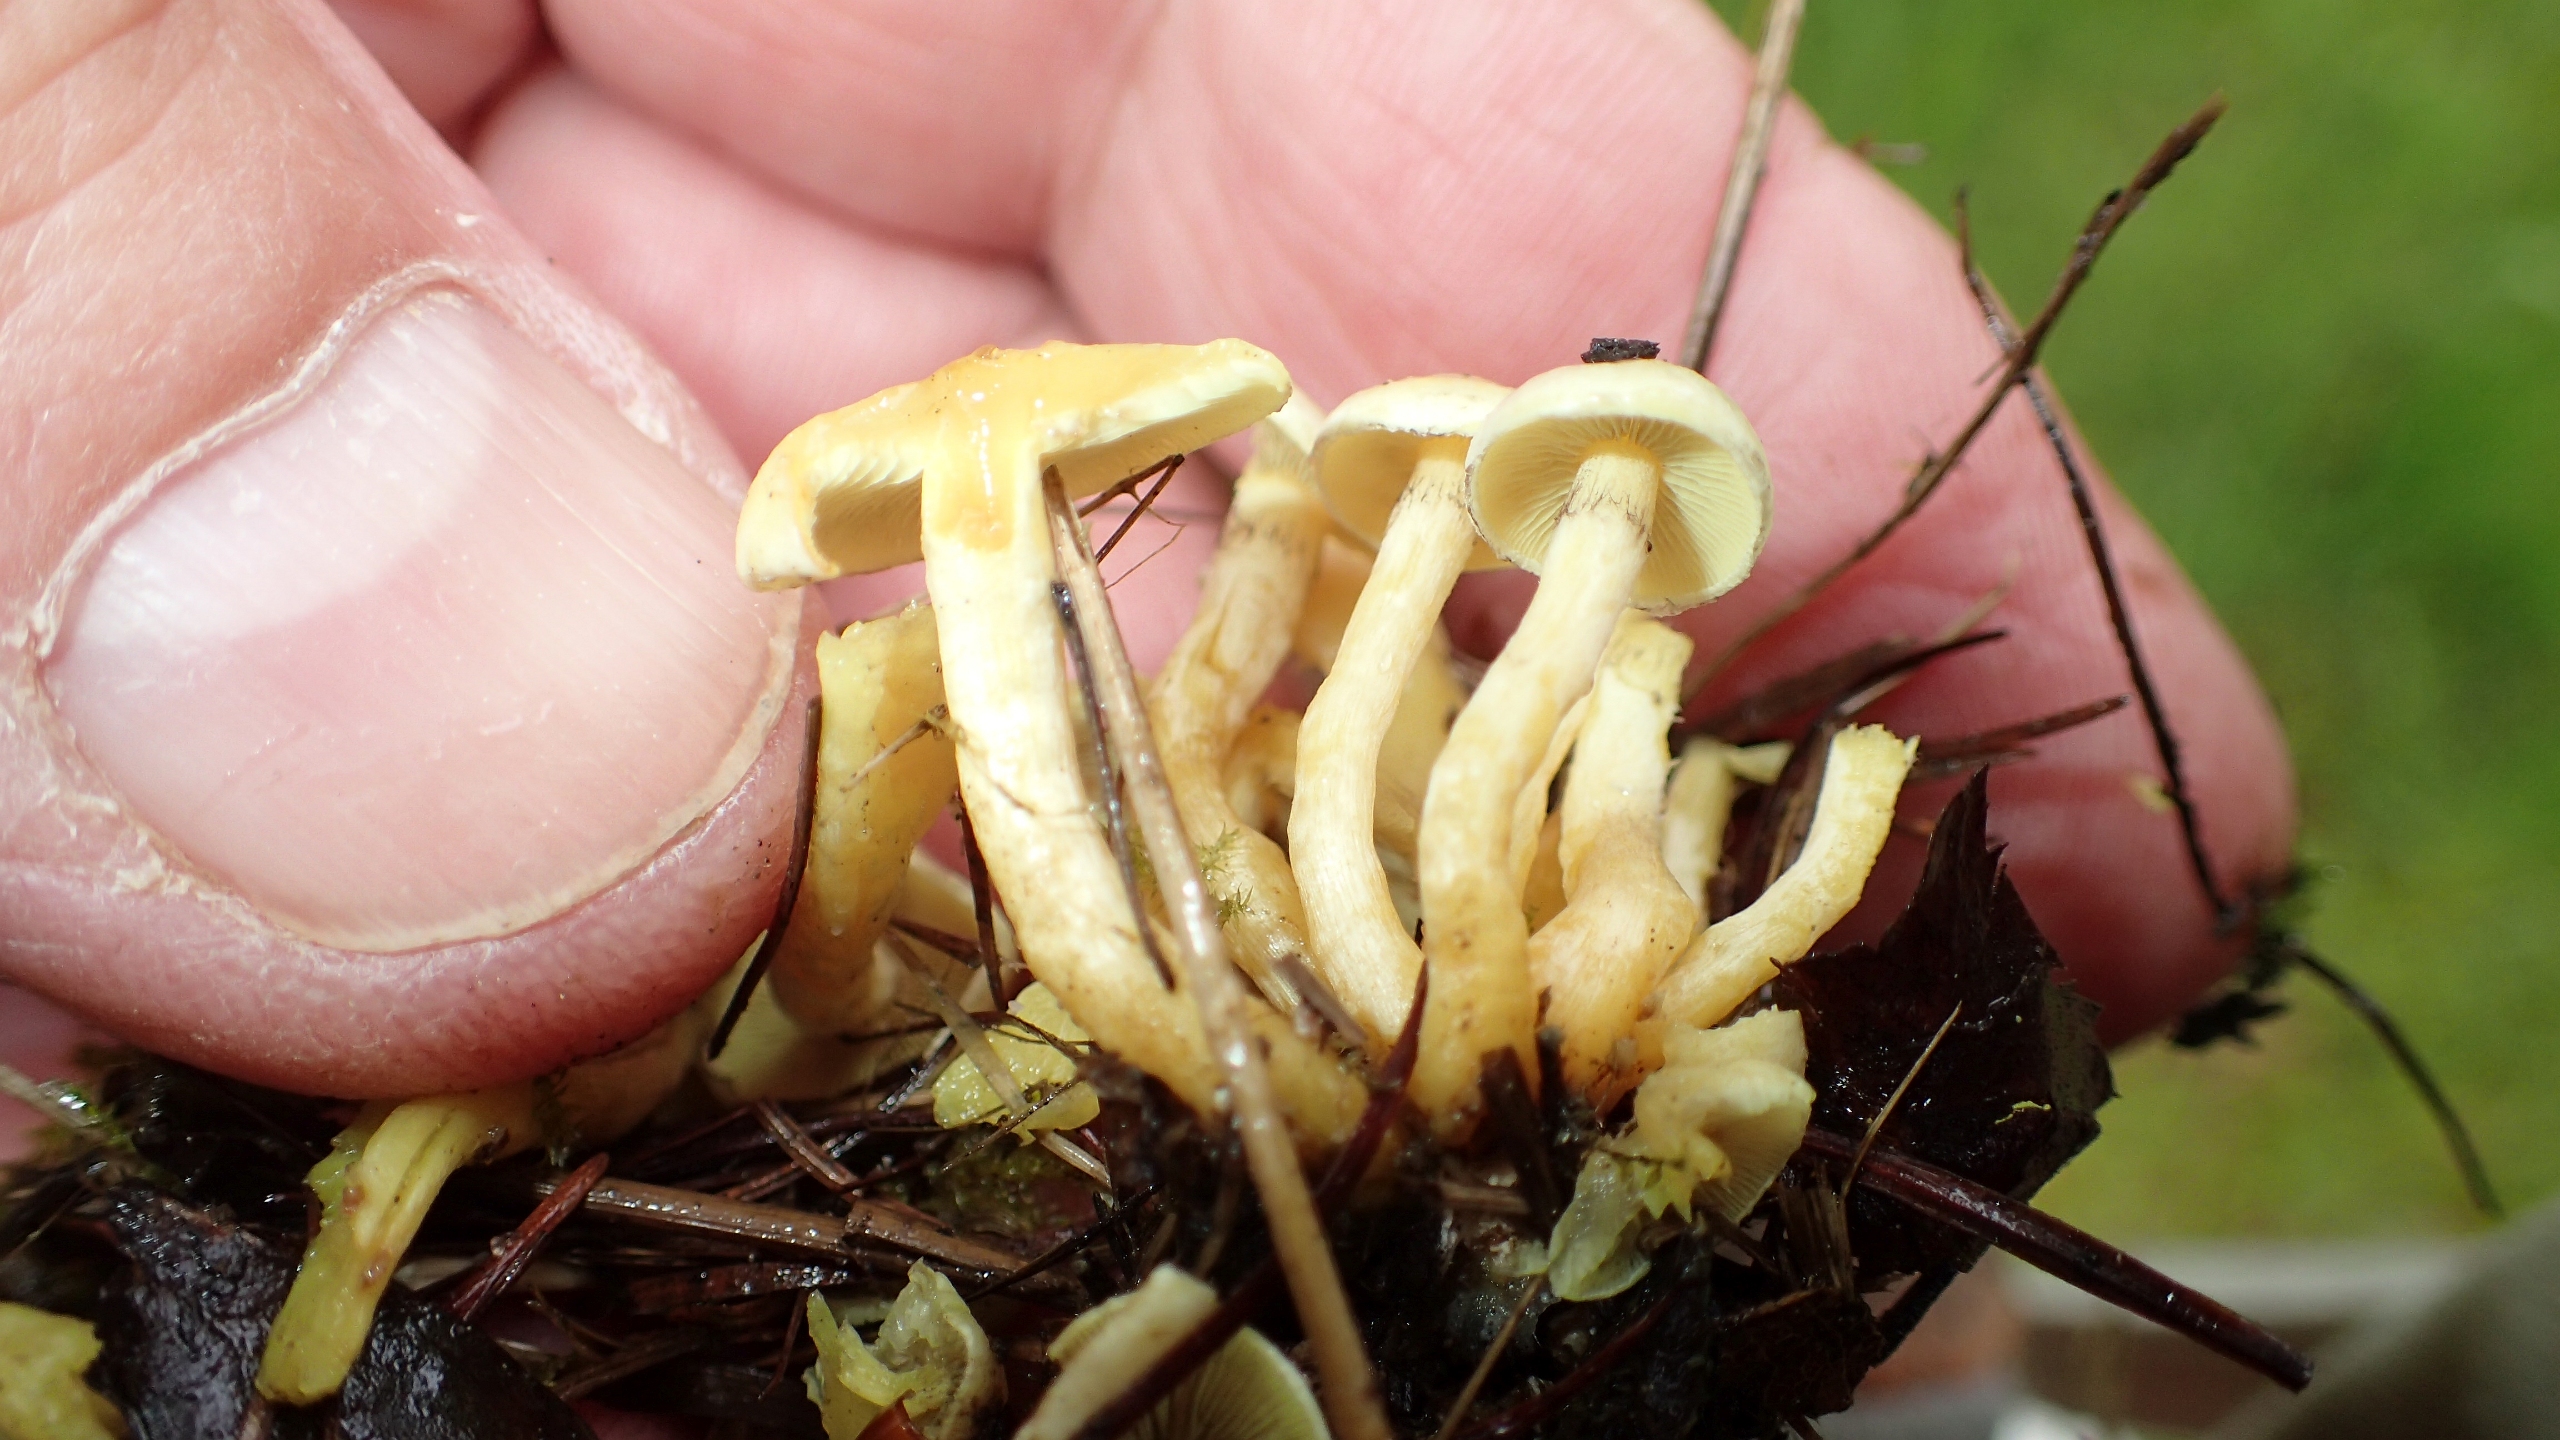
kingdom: Fungi
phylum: Basidiomycota
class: Agaricomycetes
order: Agaricales
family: Strophariaceae
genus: Hypholoma
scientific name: Hypholoma fasciculare
